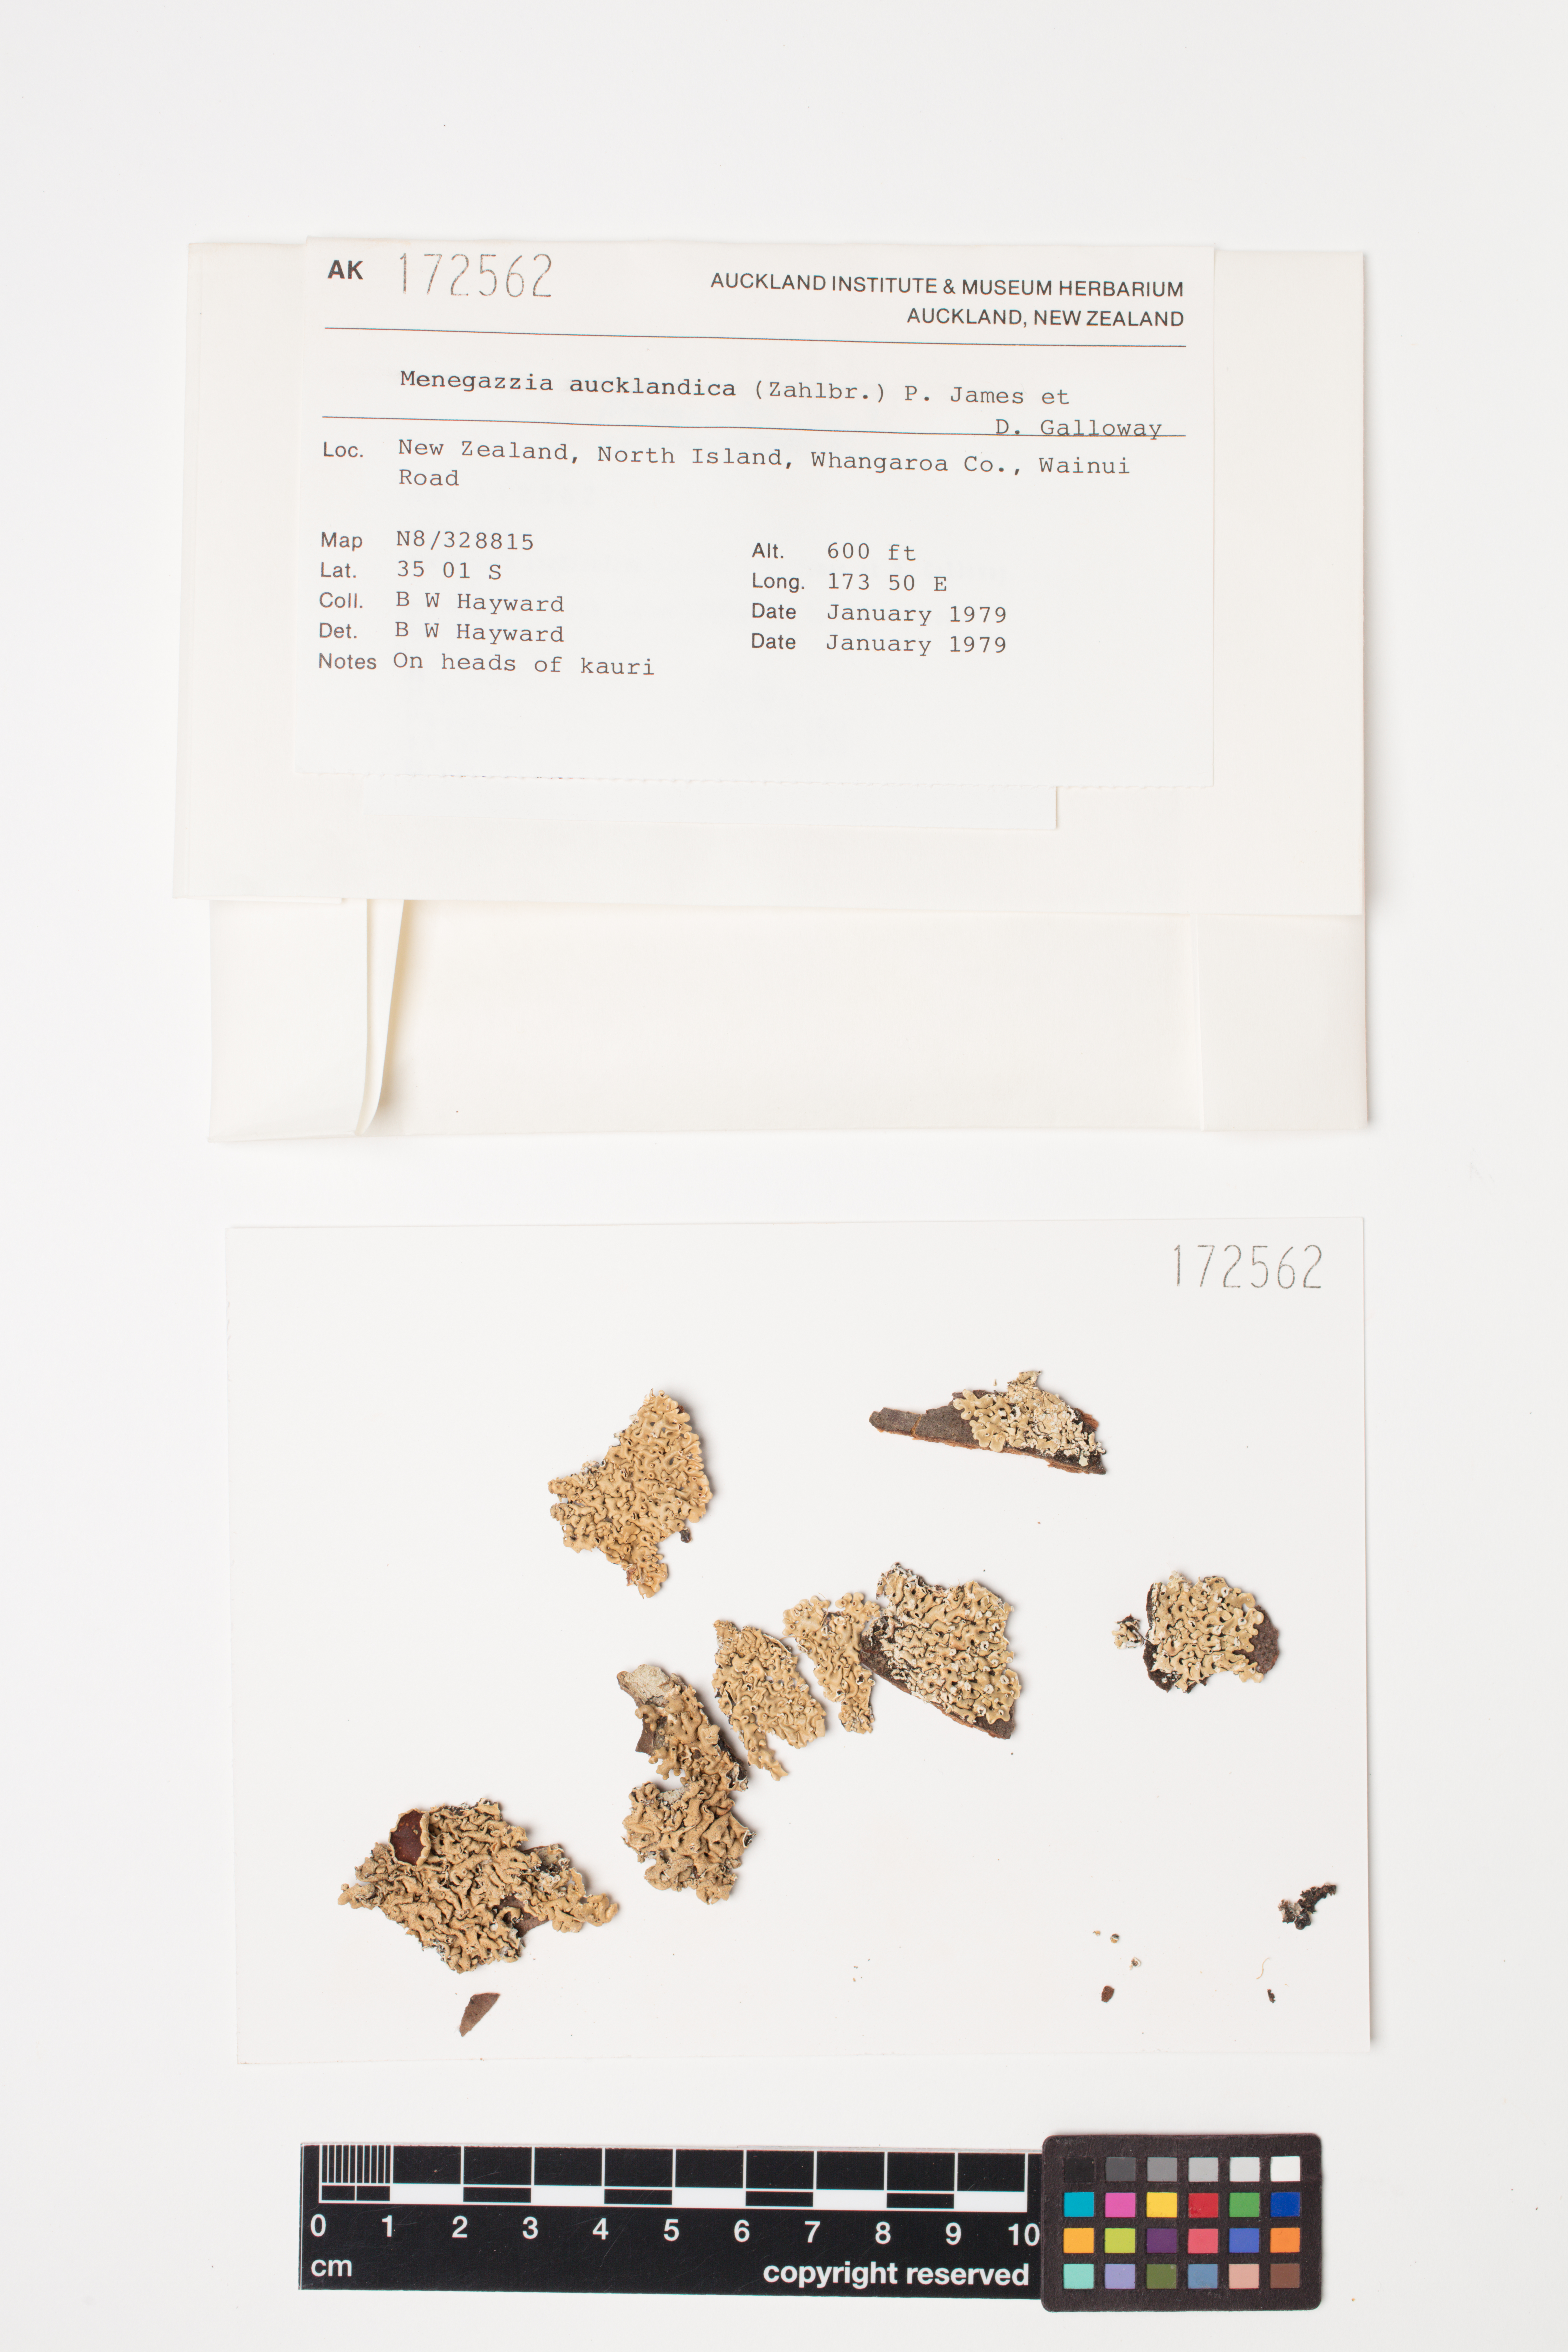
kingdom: Fungi
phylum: Ascomycota
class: Lecanoromycetes
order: Lecanorales
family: Parmeliaceae
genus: Menegazzia
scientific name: Menegazzia aucklandica
